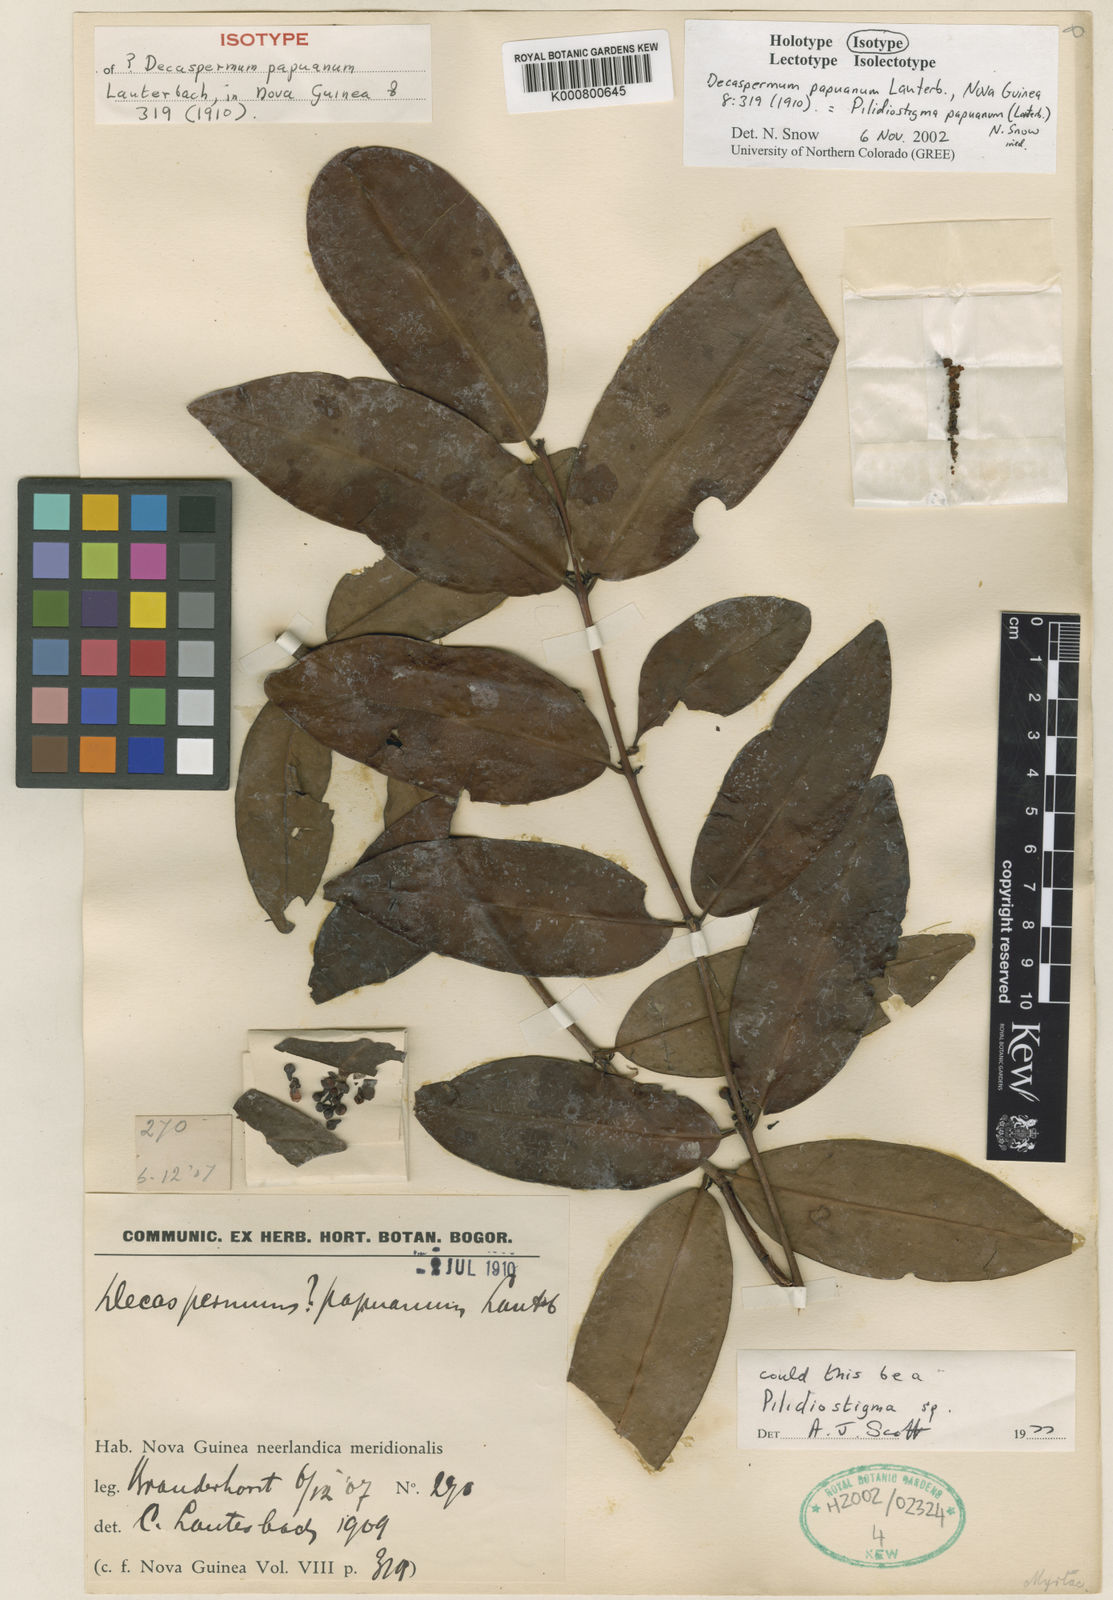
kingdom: Plantae
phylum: Tracheophyta
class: Magnoliopsida
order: Myrtales
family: Myrtaceae
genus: Pilidiostigma
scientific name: Pilidiostigma papuanum
